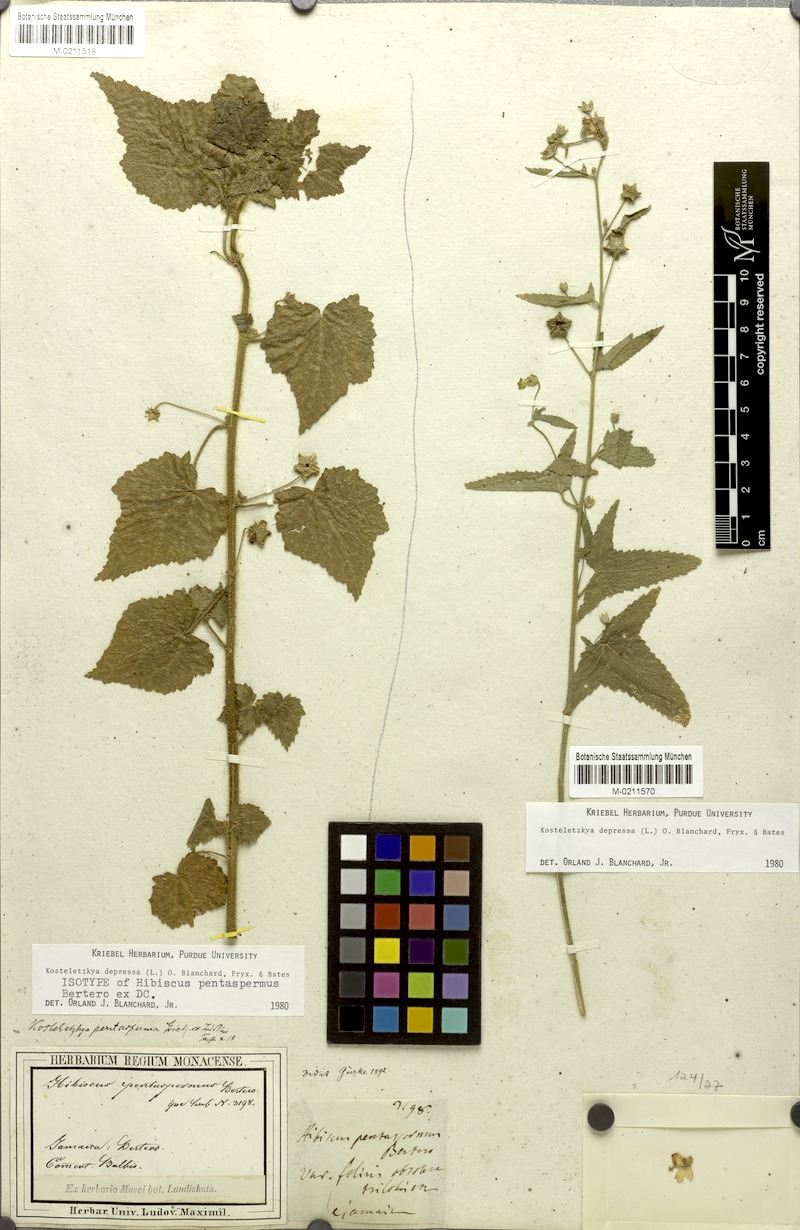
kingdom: Plantae
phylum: Tracheophyta
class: Magnoliopsida
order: Malvales
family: Malvaceae
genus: Kosteletzkya
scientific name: Kosteletzkya depressa
